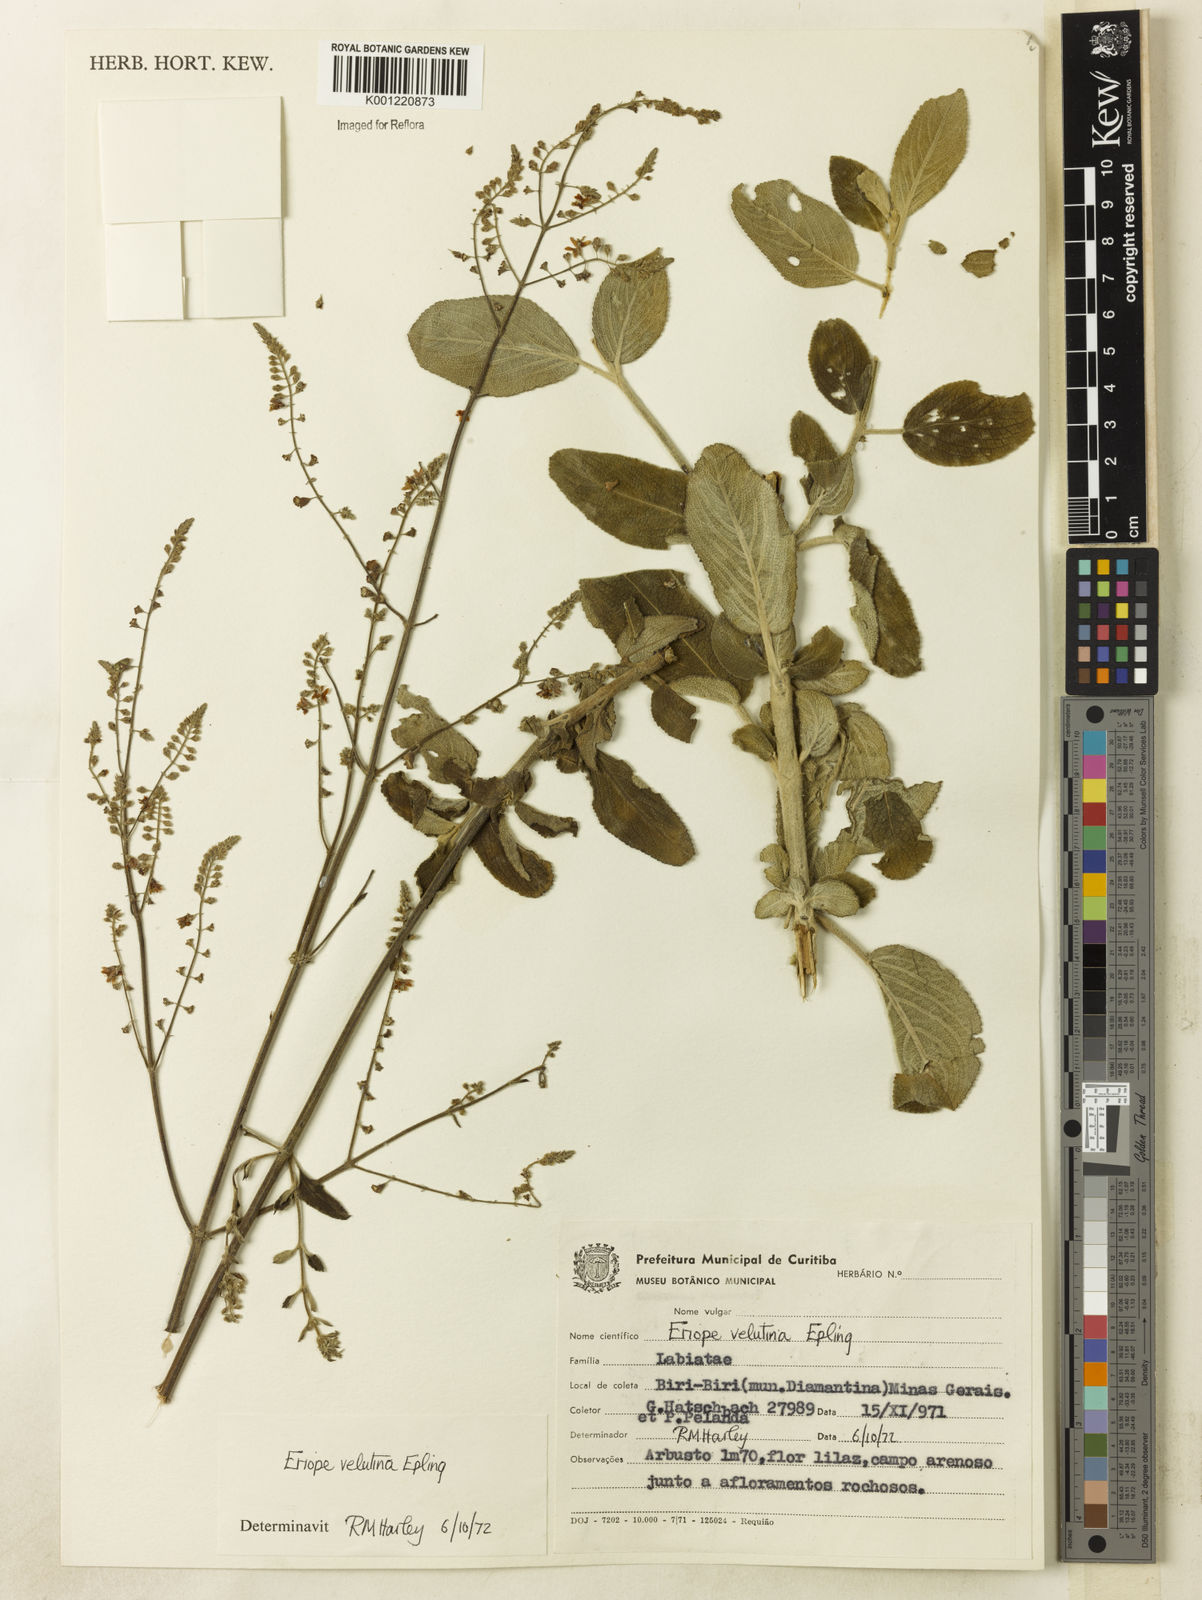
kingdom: Plantae
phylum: Tracheophyta
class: Magnoliopsida
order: Lamiales
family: Lamiaceae
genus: Eriope
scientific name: Eriope velutina
